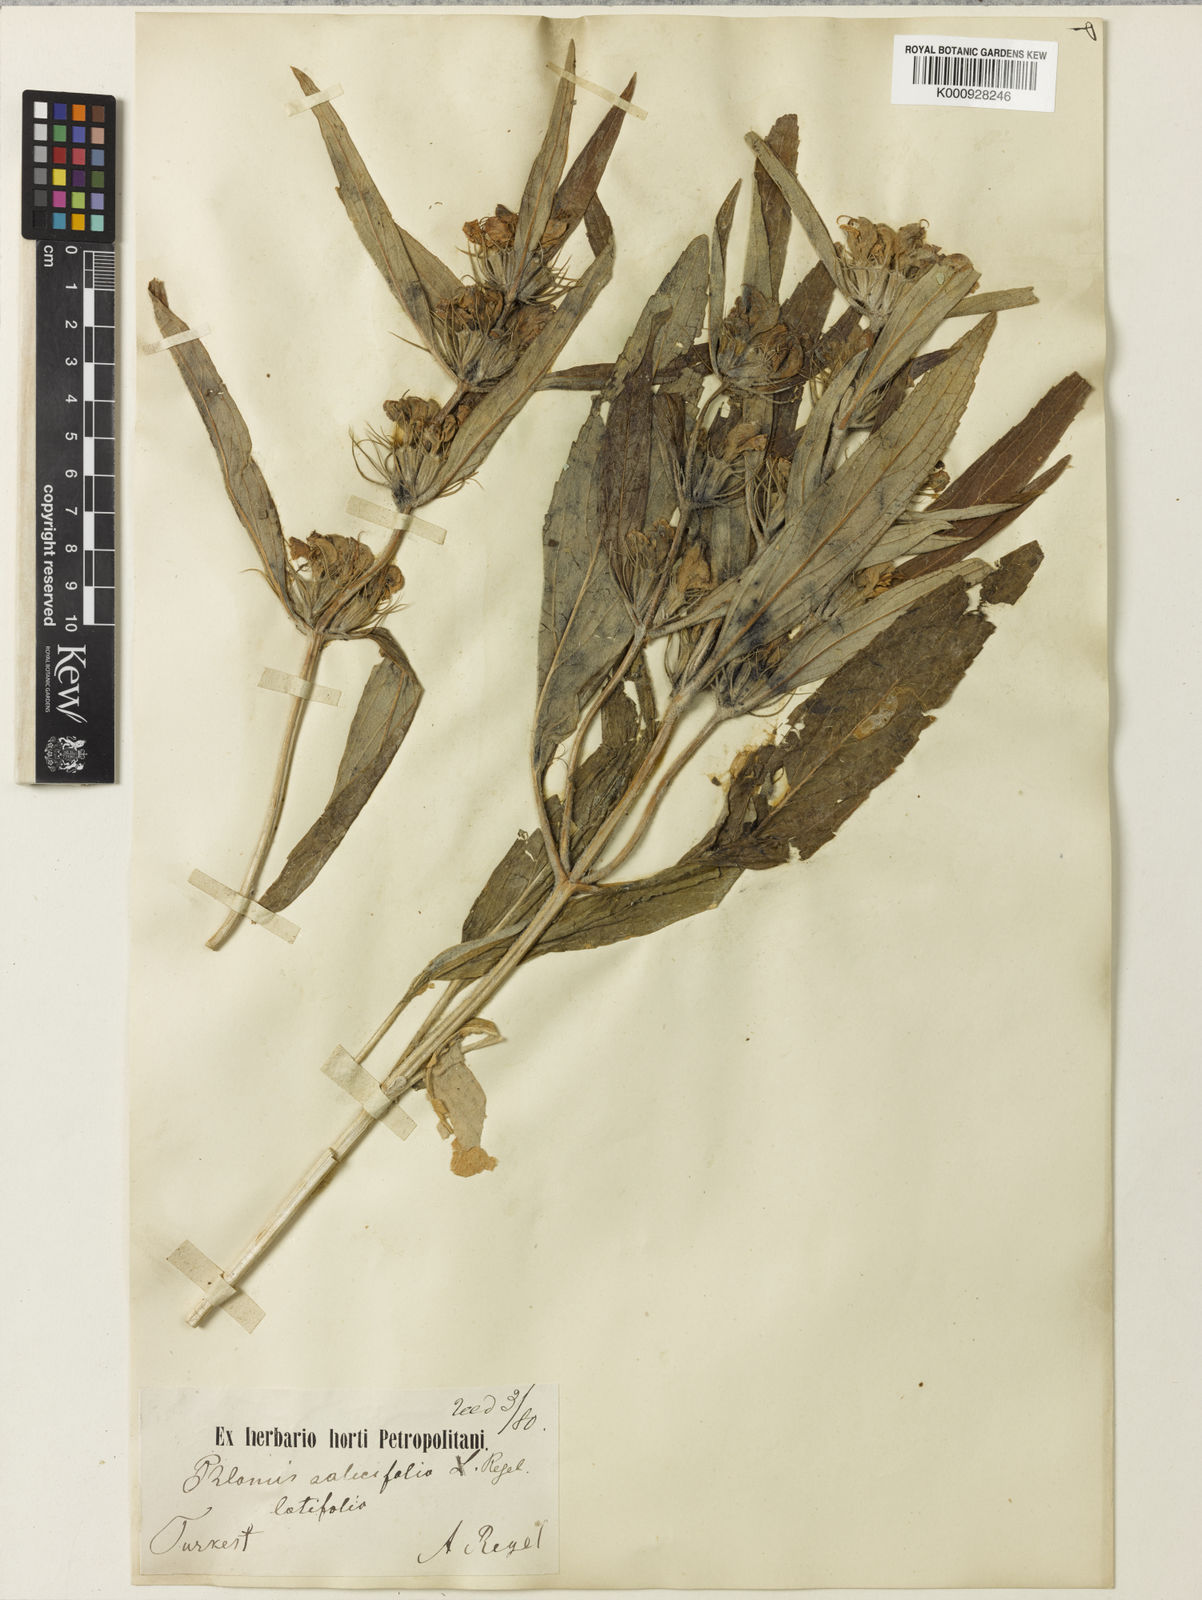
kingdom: Plantae
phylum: Tracheophyta
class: Magnoliopsida
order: Lamiales
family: Lamiaceae
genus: Phlomis
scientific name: Phlomis salicifolia
